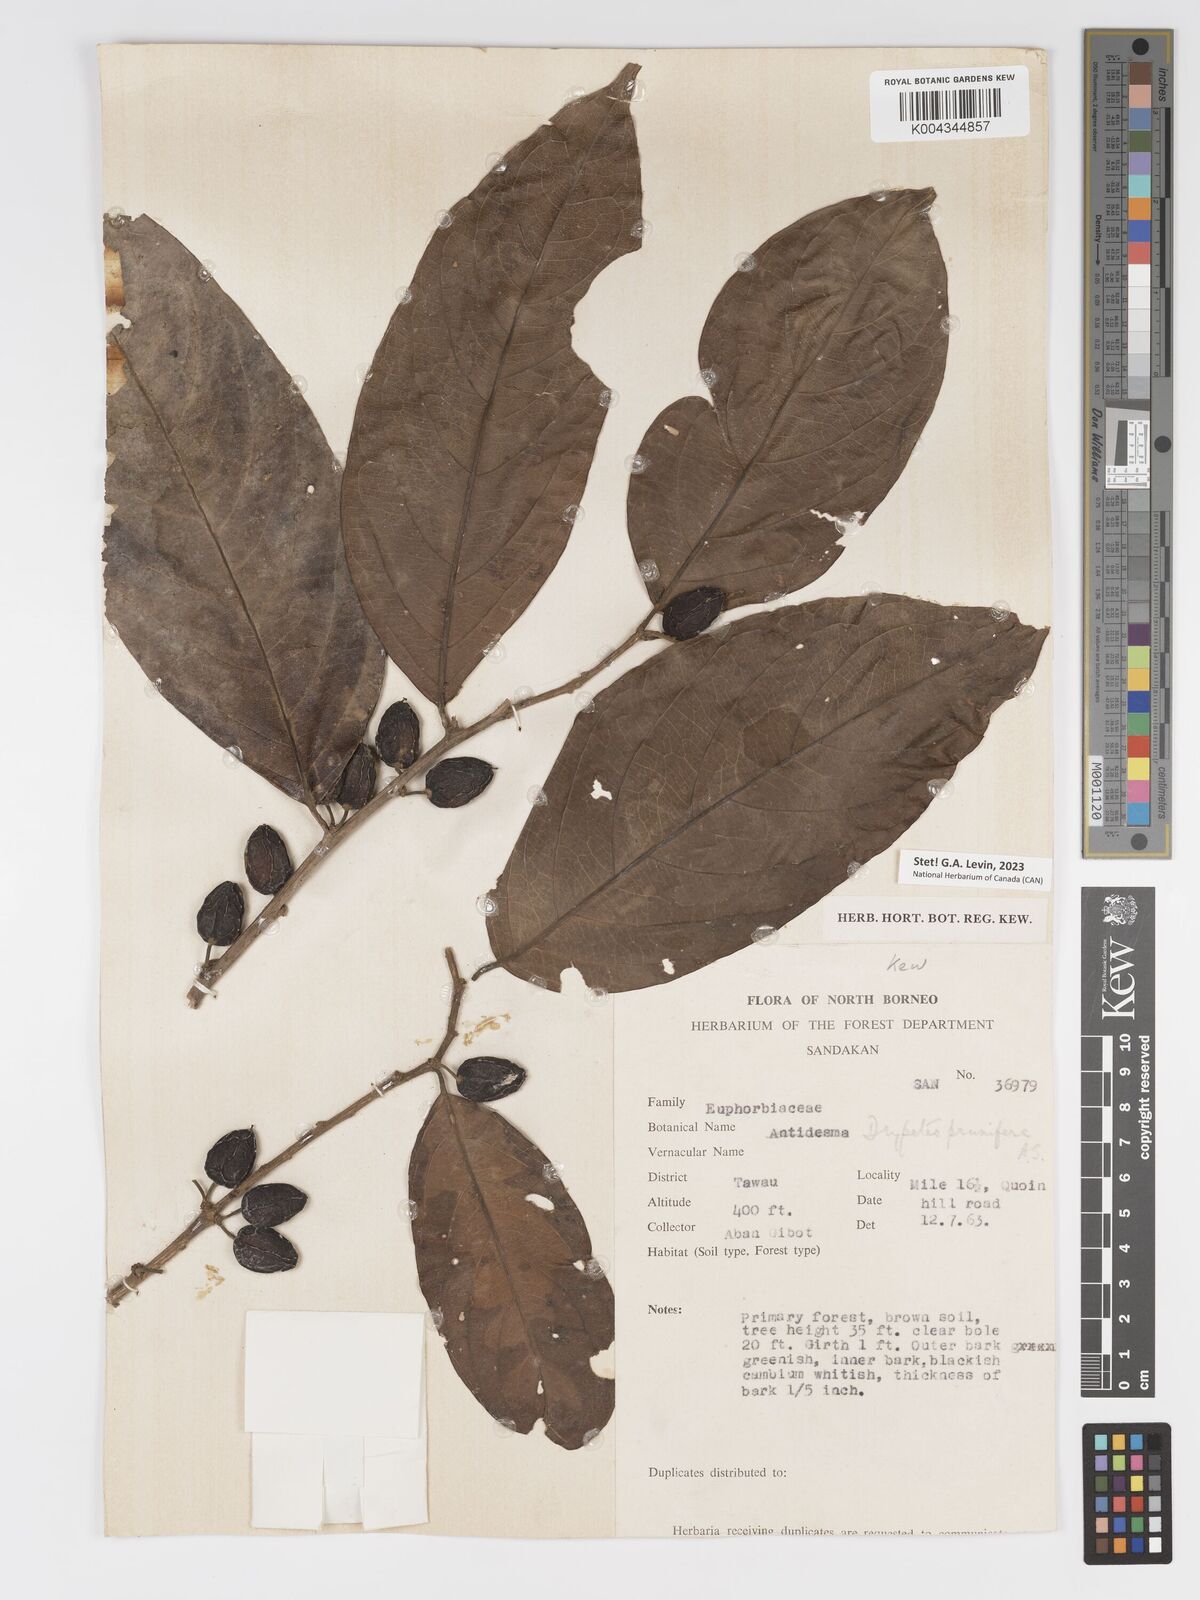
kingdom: Plantae
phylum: Tracheophyta
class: Magnoliopsida
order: Malpighiales
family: Putranjivaceae
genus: Drypetes
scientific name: Drypetes prunifera
